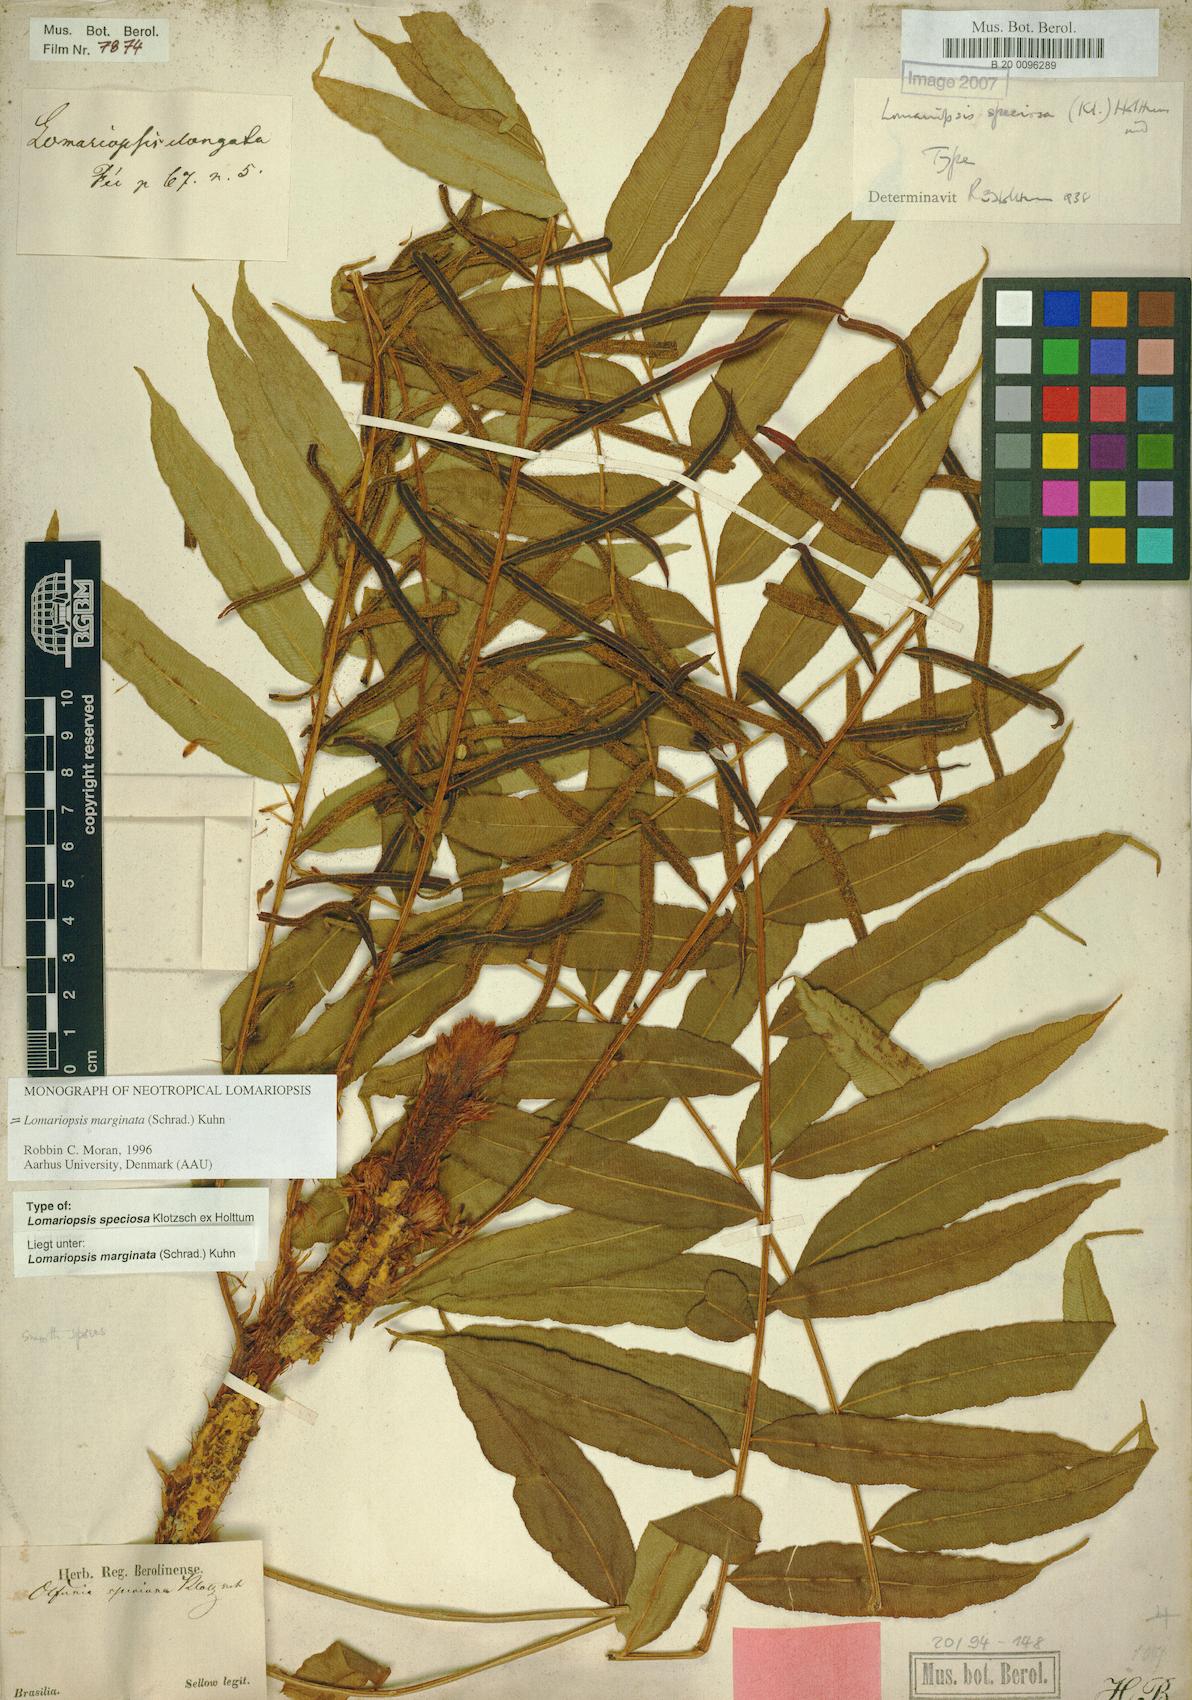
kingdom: Plantae
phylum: Tracheophyta
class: Polypodiopsida
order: Polypodiales
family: Lomariopsidaceae
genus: Lomariopsis
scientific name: Lomariopsis marginata
